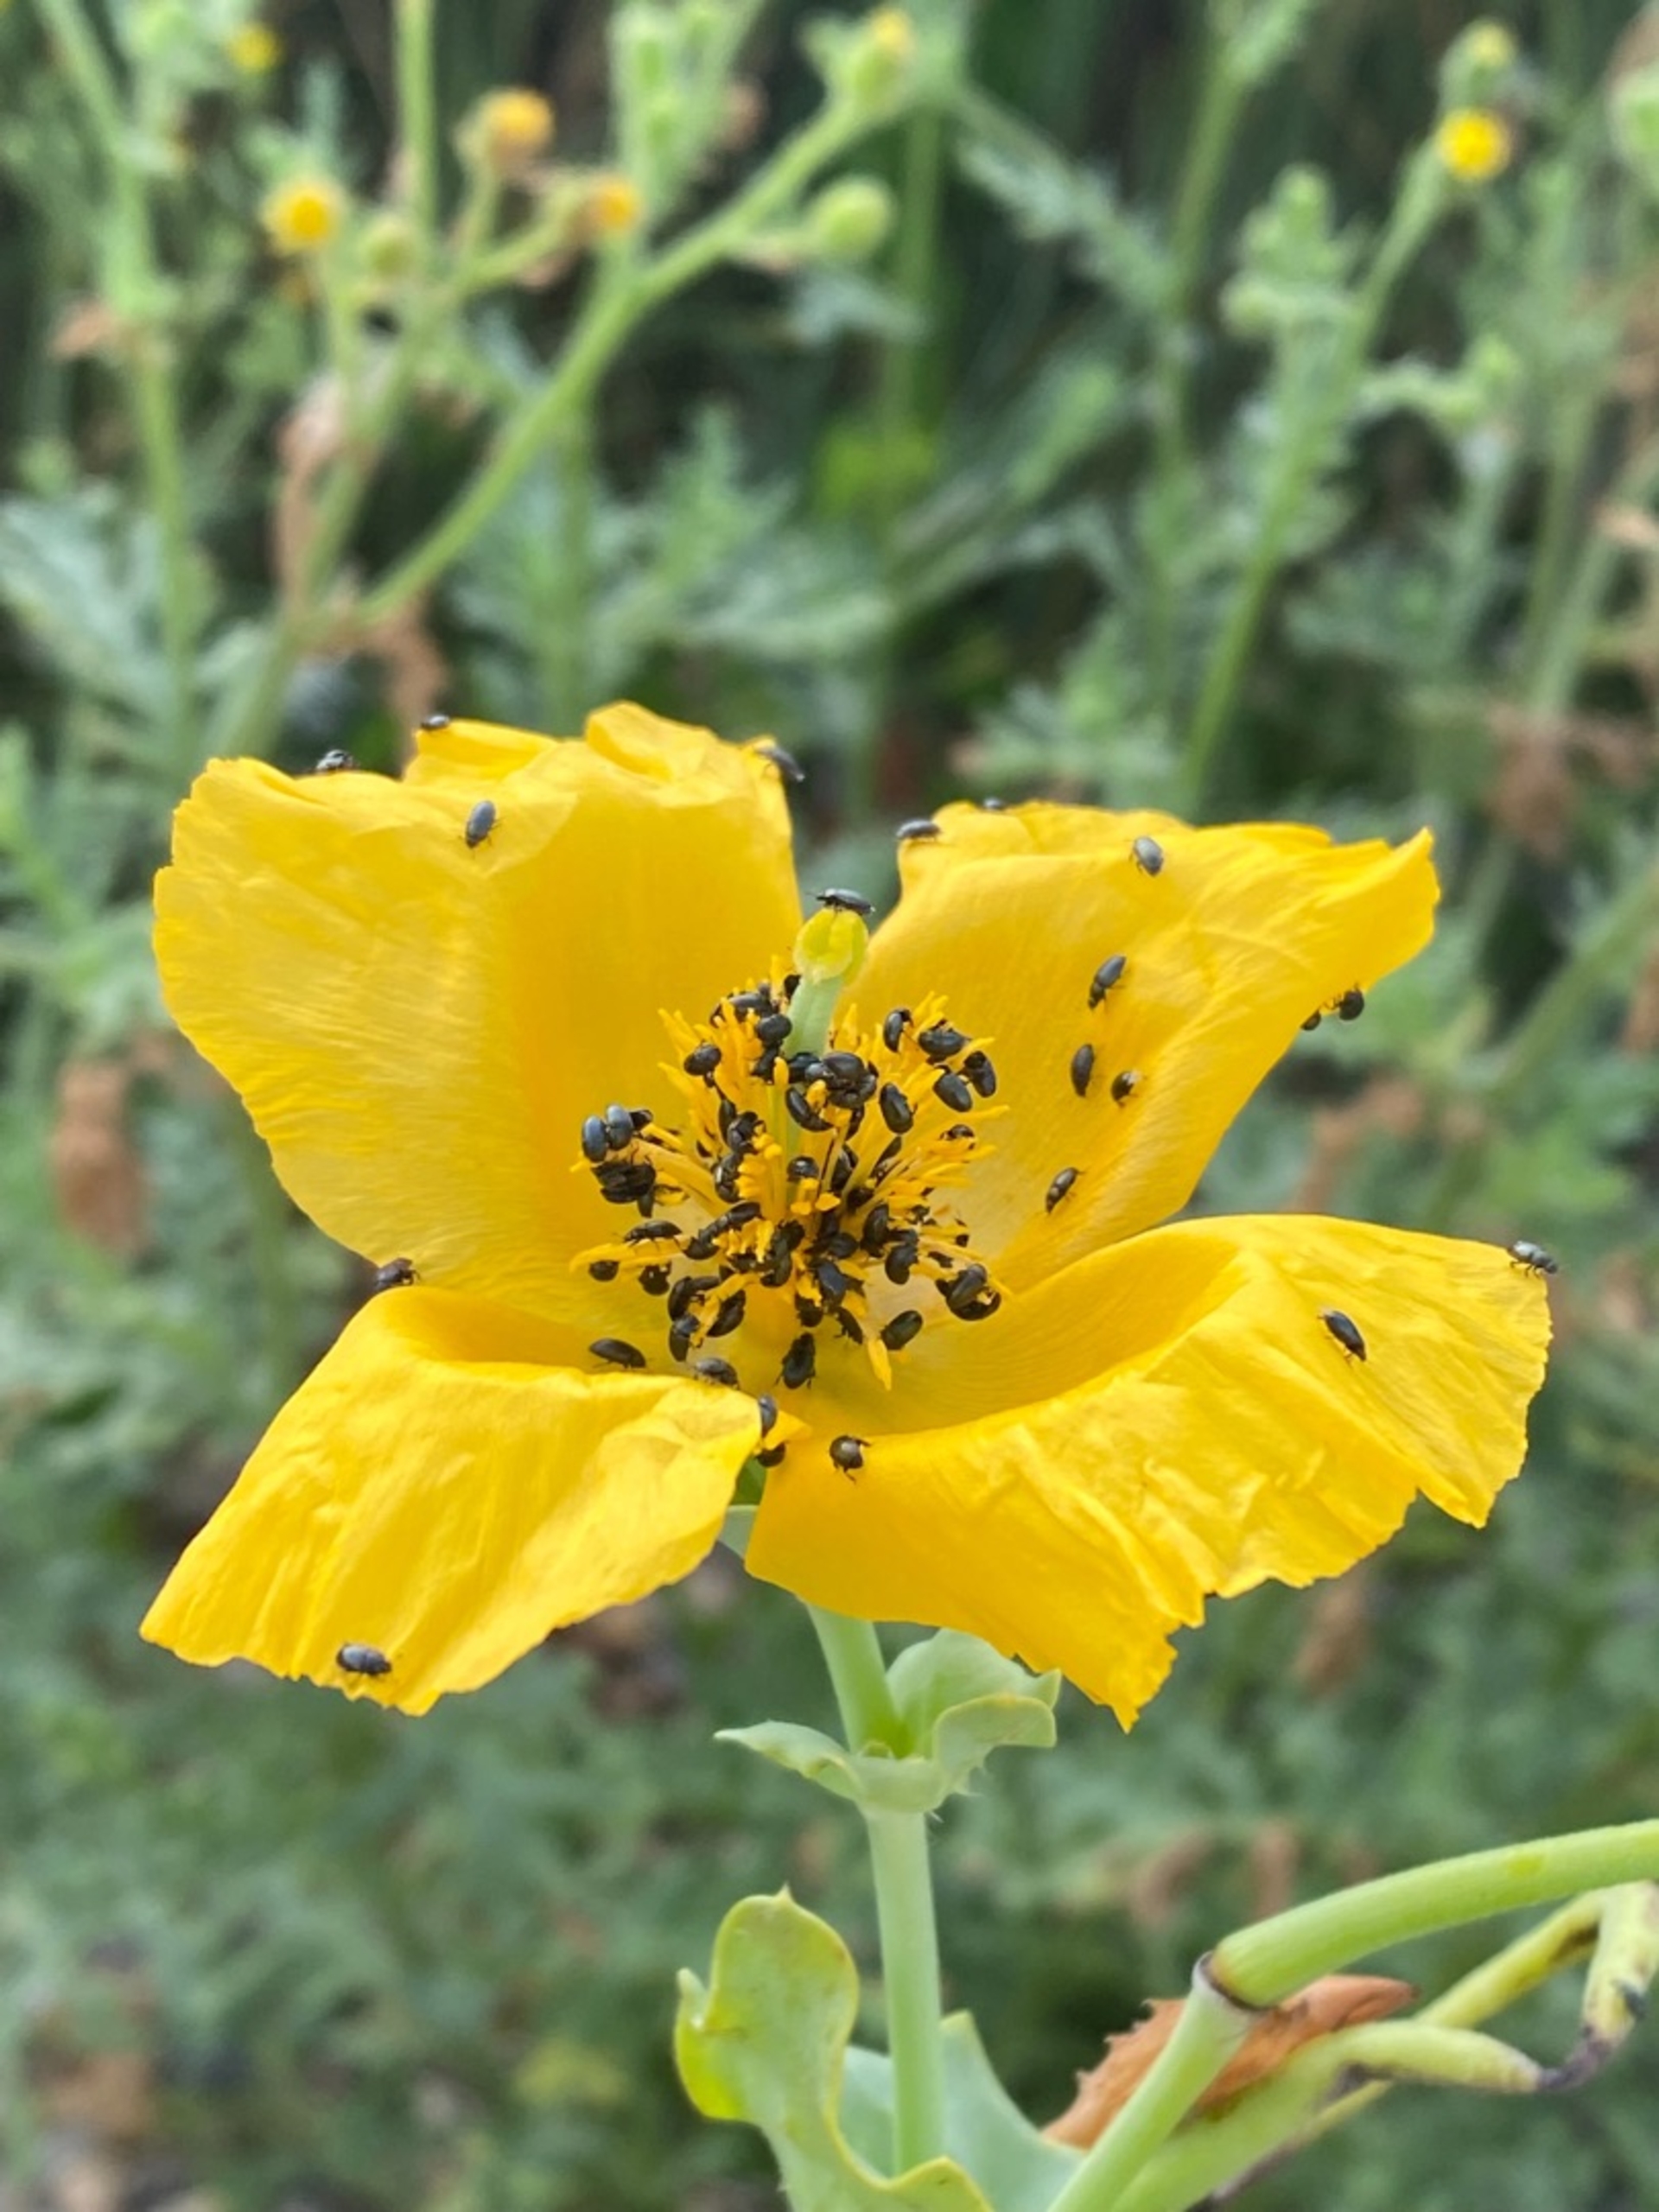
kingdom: Plantae
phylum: Tracheophyta
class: Magnoliopsida
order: Ranunculales
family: Papaveraceae
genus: Glaucium
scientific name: Glaucium flavum
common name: Hornskulpe
